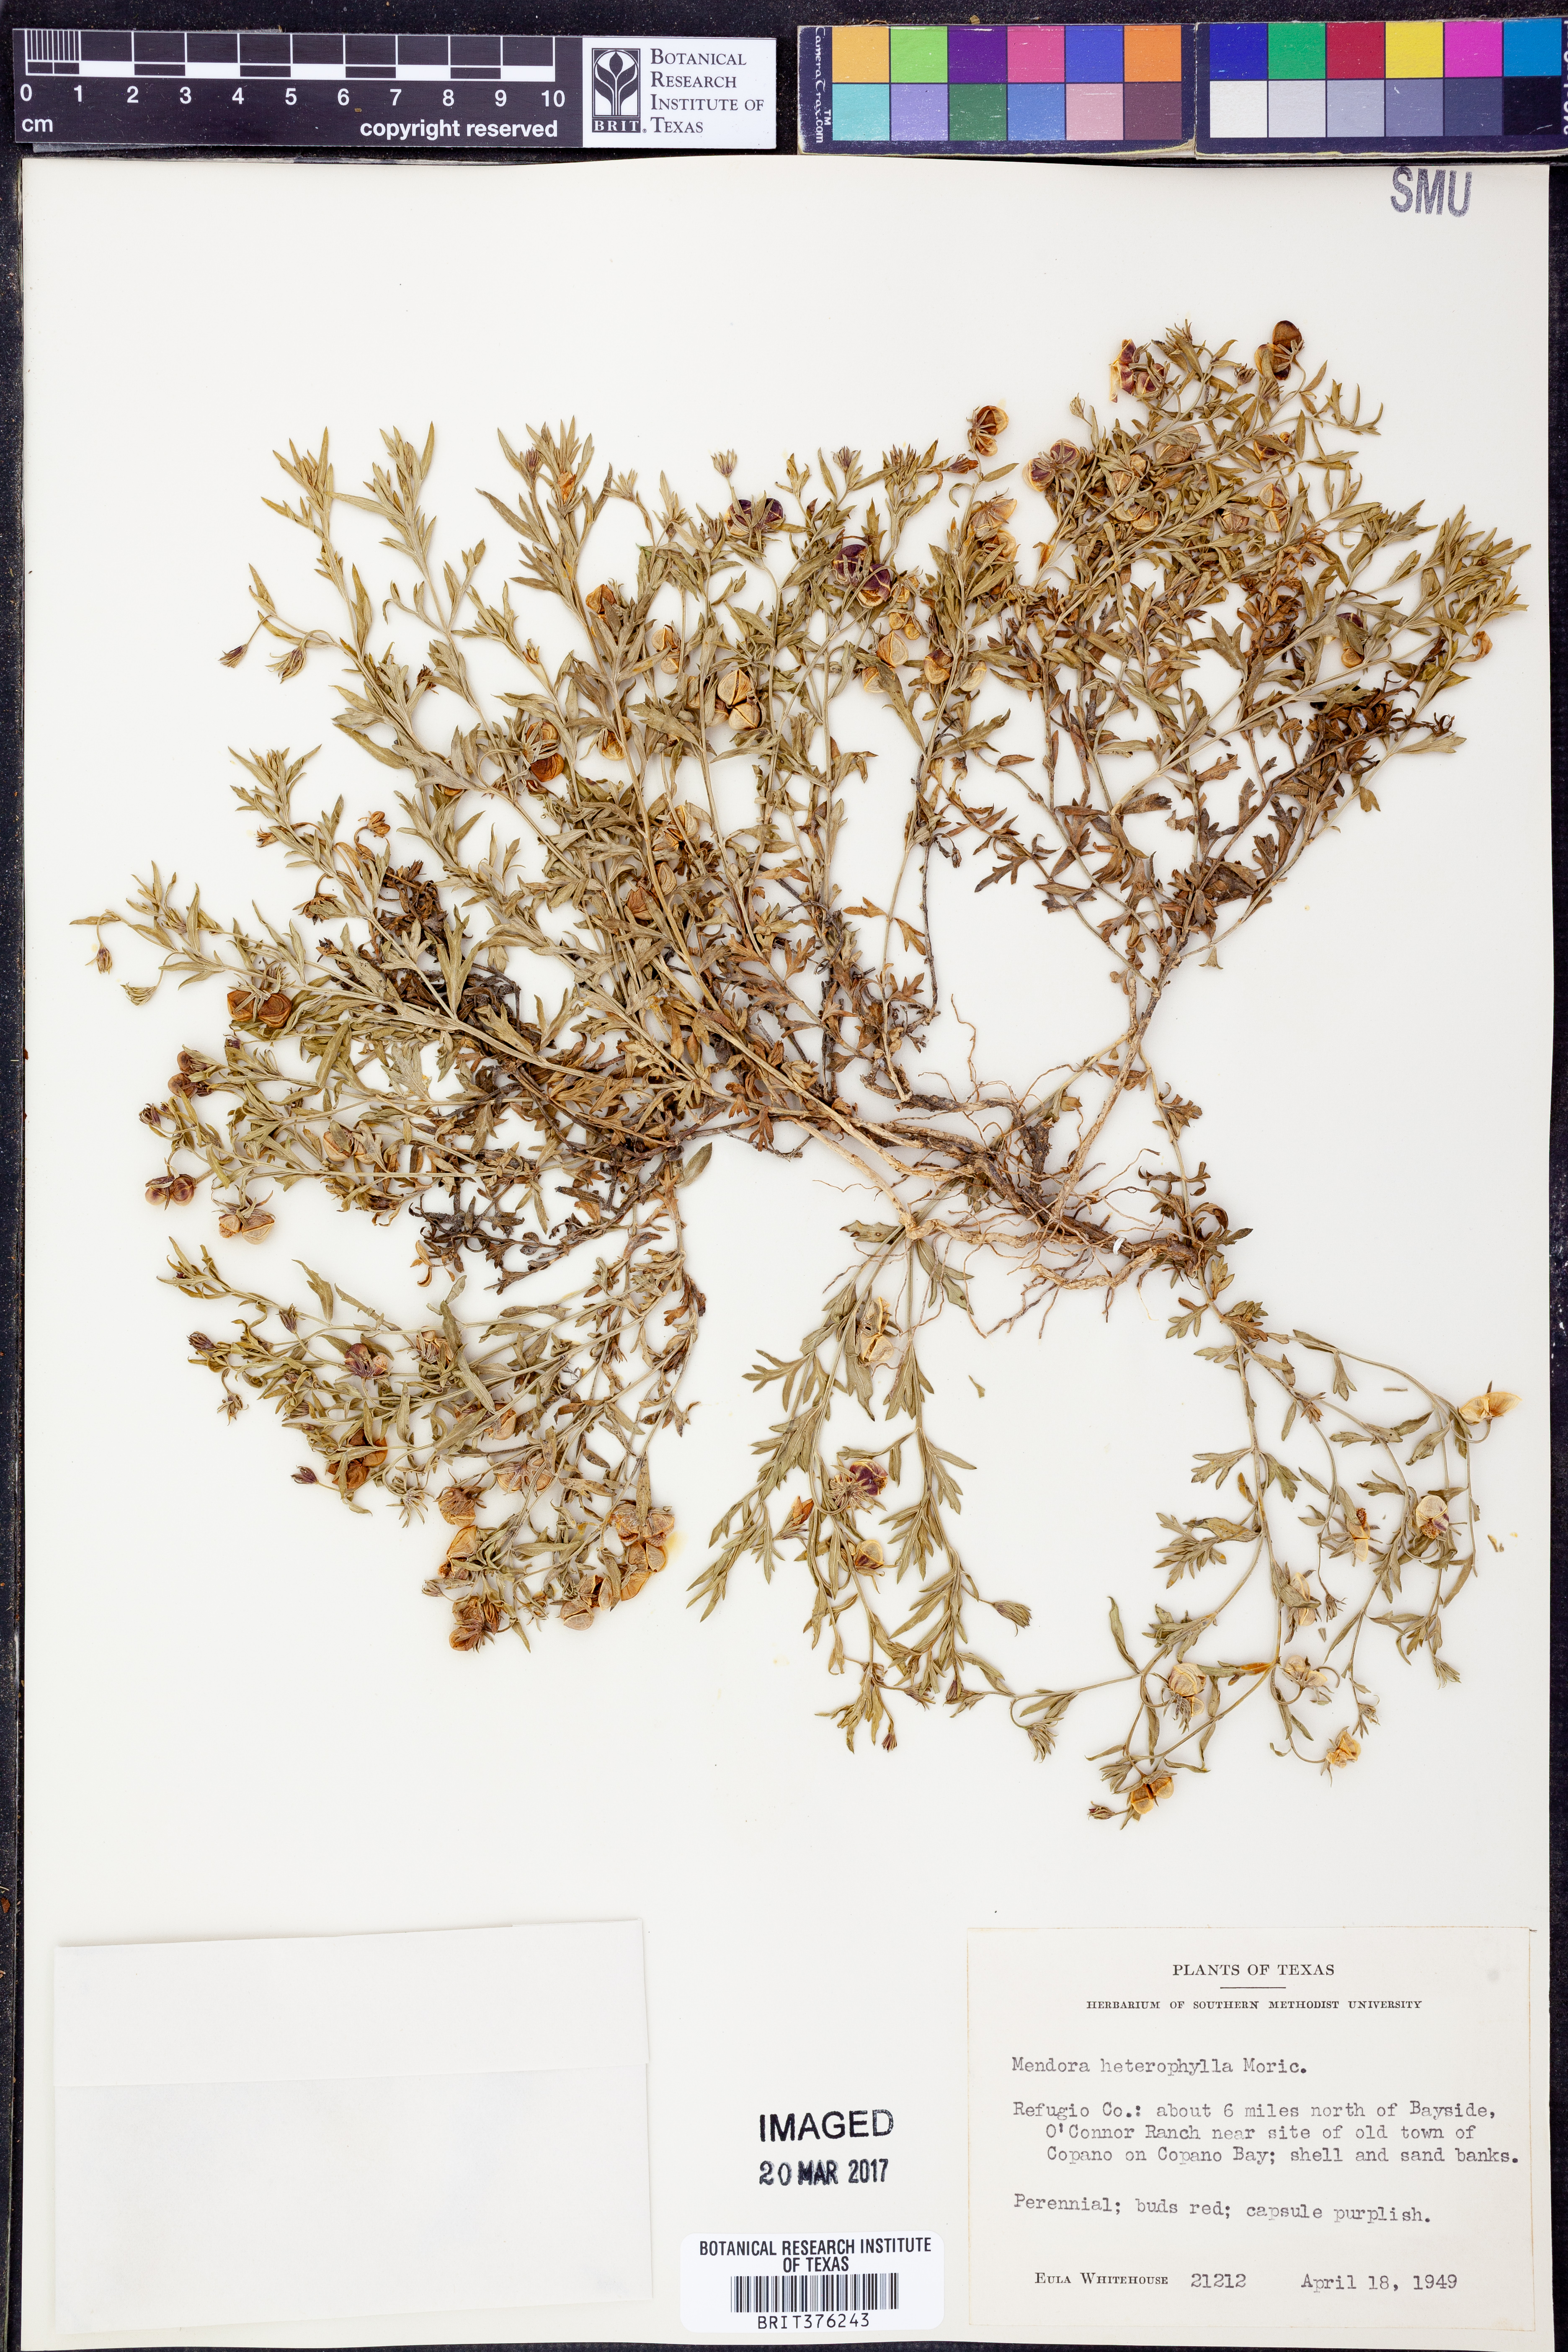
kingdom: Plantae
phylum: Tracheophyta
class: Magnoliopsida
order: Lamiales
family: Oleaceae
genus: Menodora
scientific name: Menodora heterophylla
